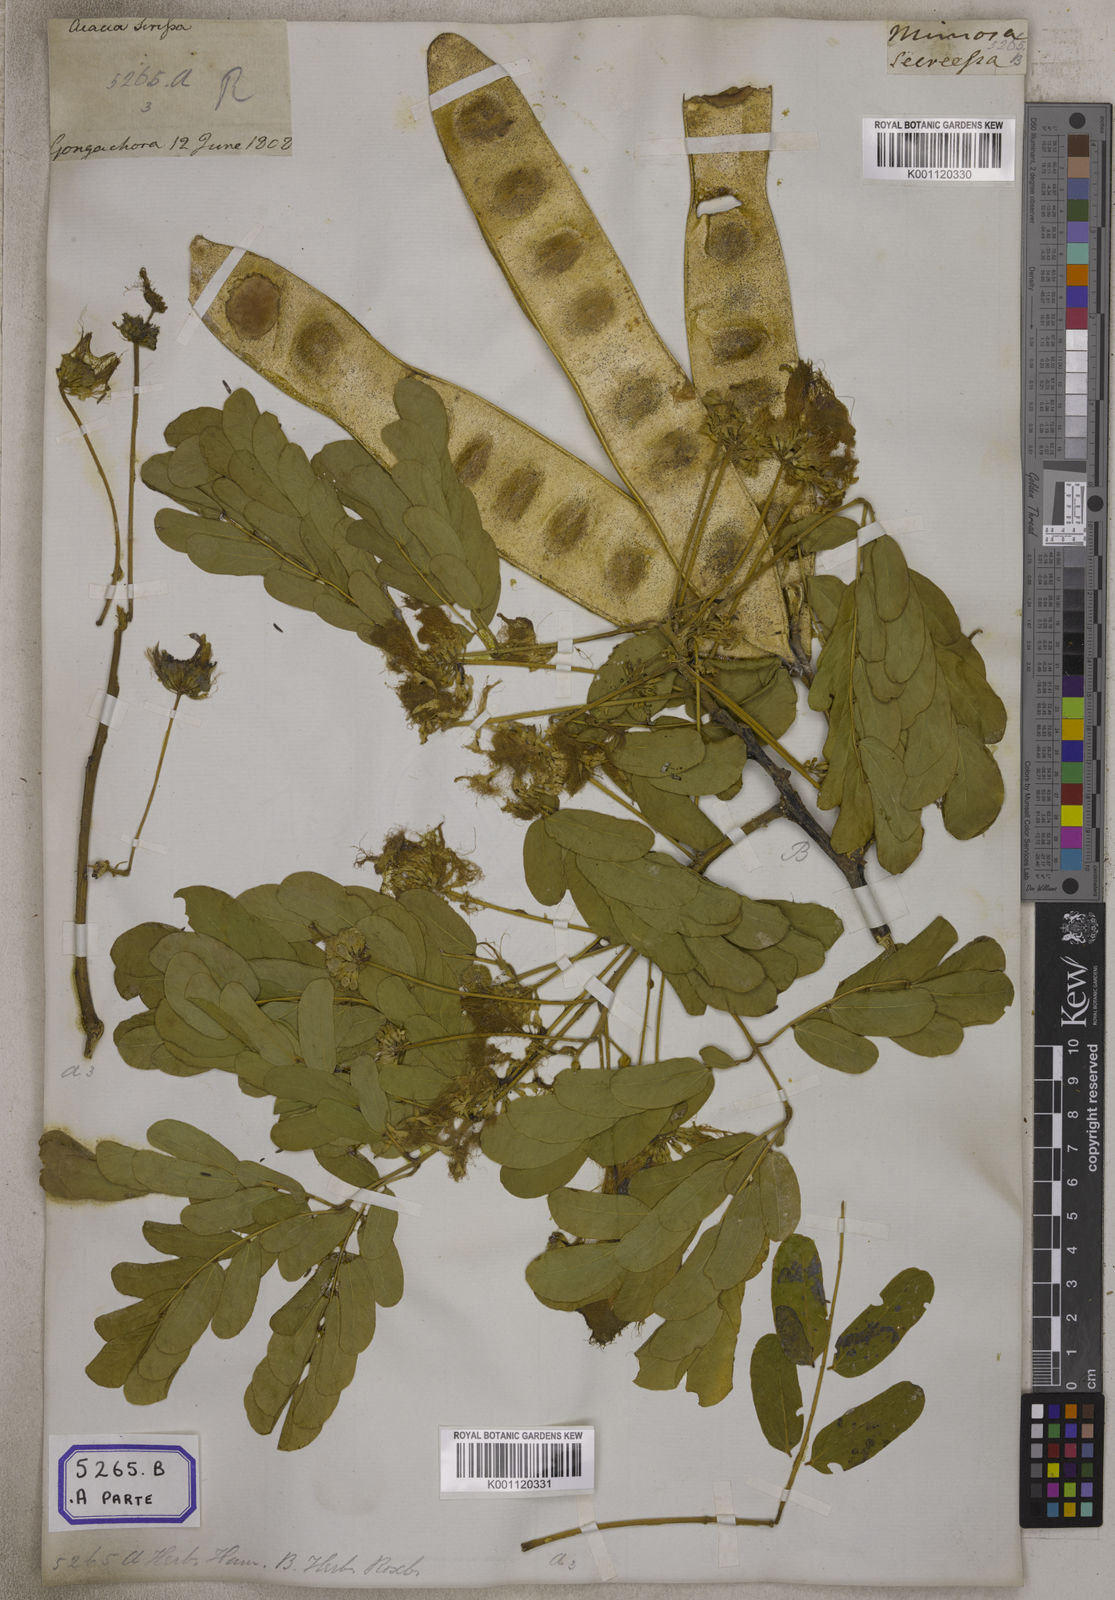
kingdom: Plantae
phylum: Tracheophyta
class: Magnoliopsida
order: Fabales
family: Fabaceae
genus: Acacia
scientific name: Acacia
